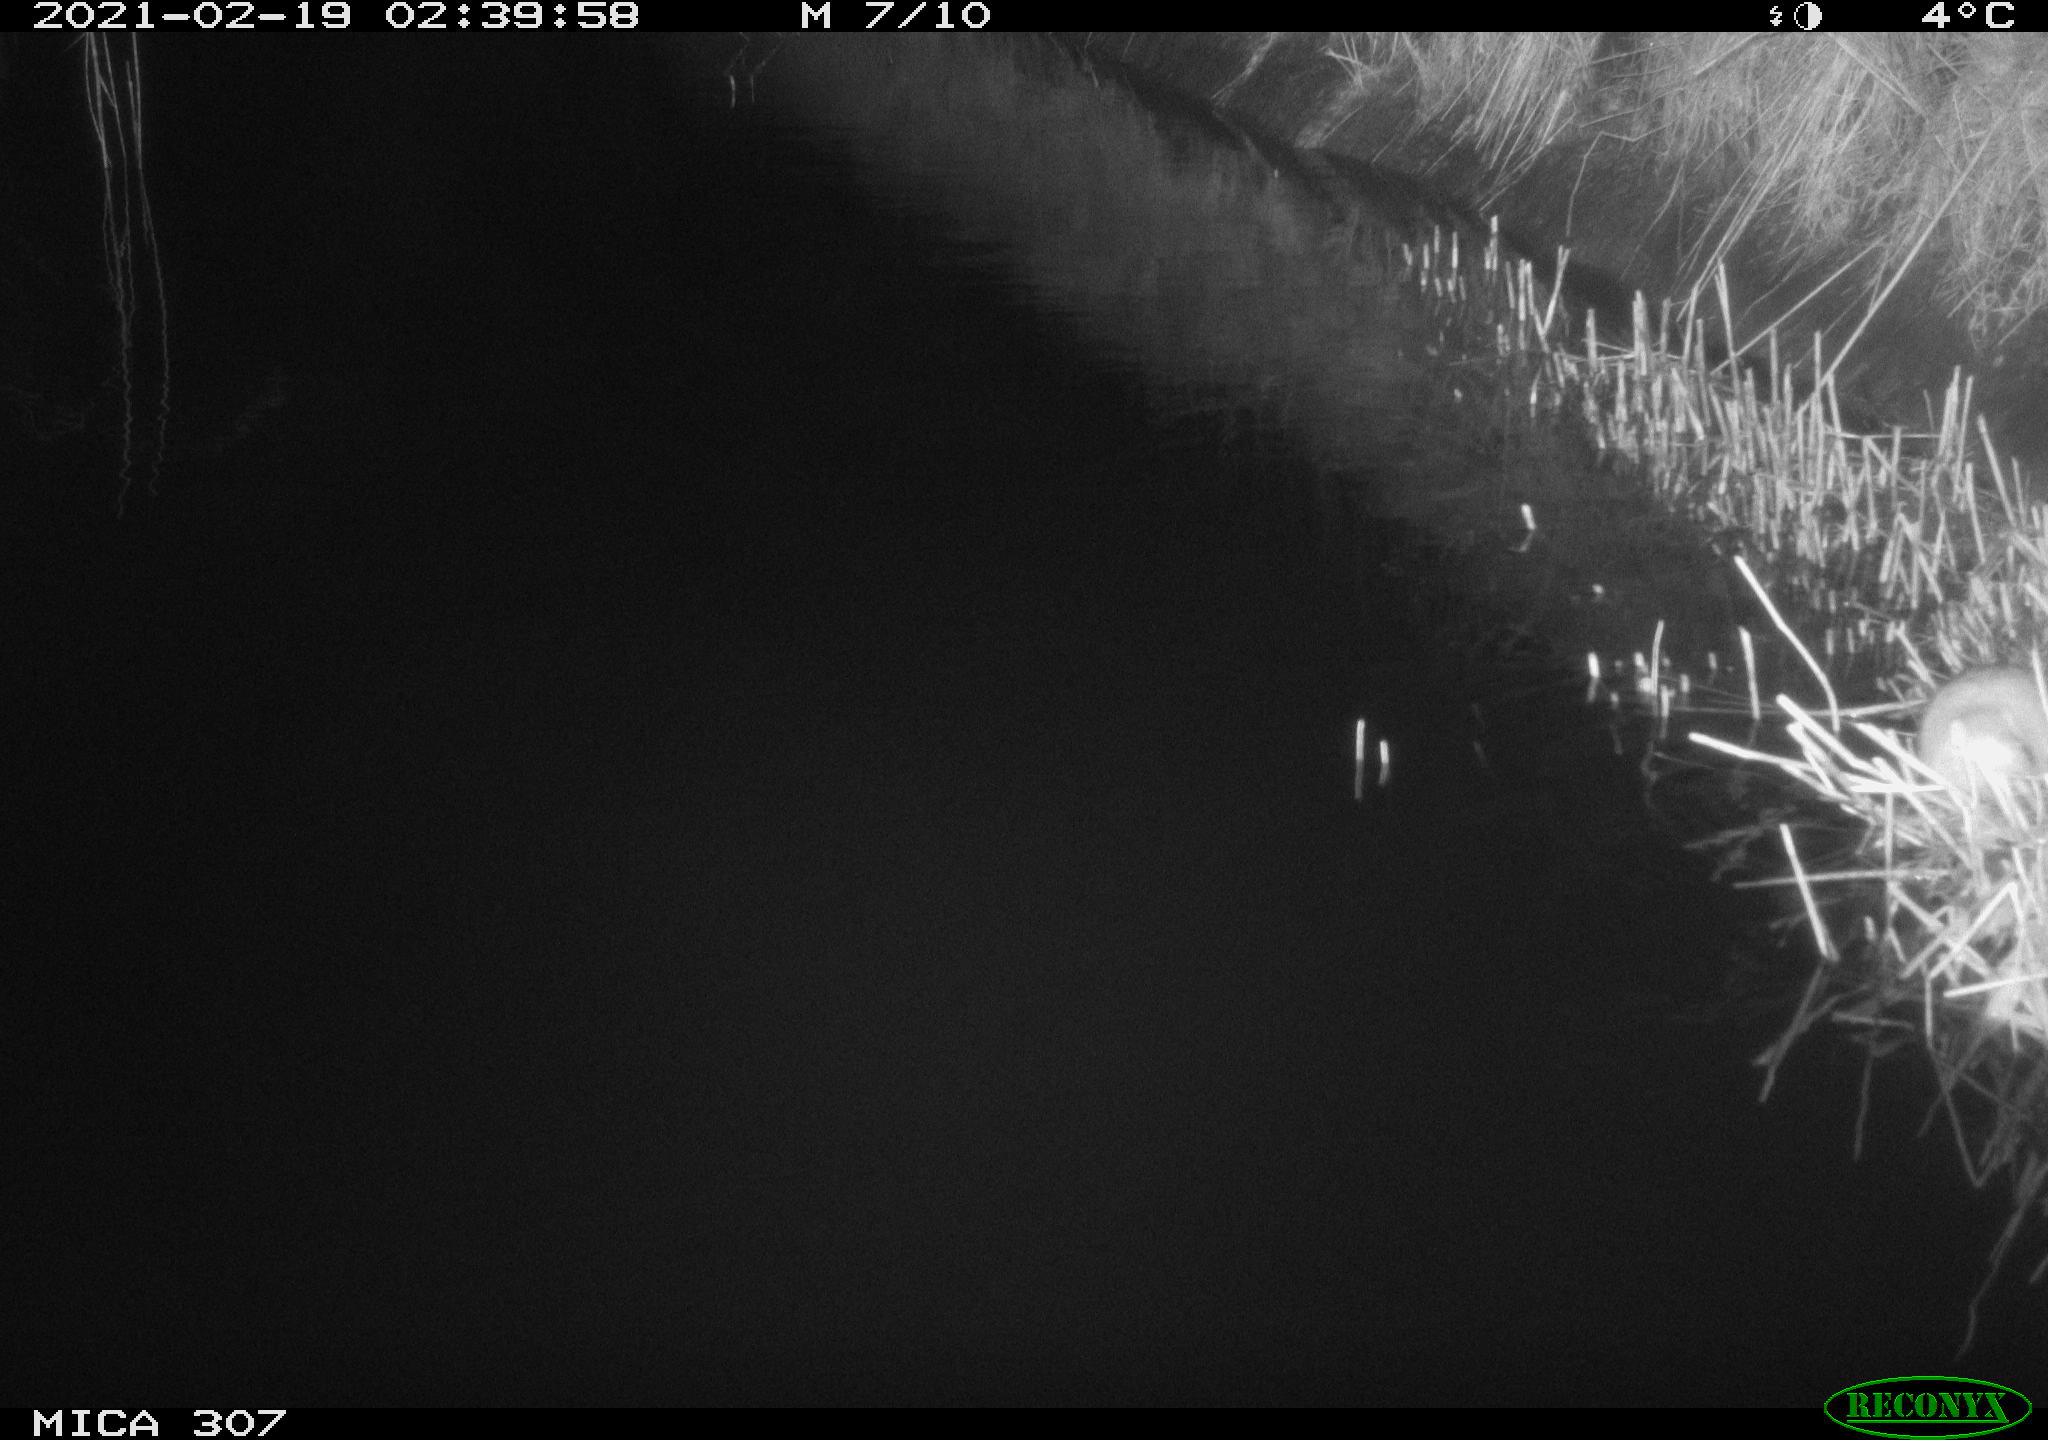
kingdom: Animalia
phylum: Chordata
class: Mammalia
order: Rodentia
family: Muridae
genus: Rattus
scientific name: Rattus norvegicus
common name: Brown rat
